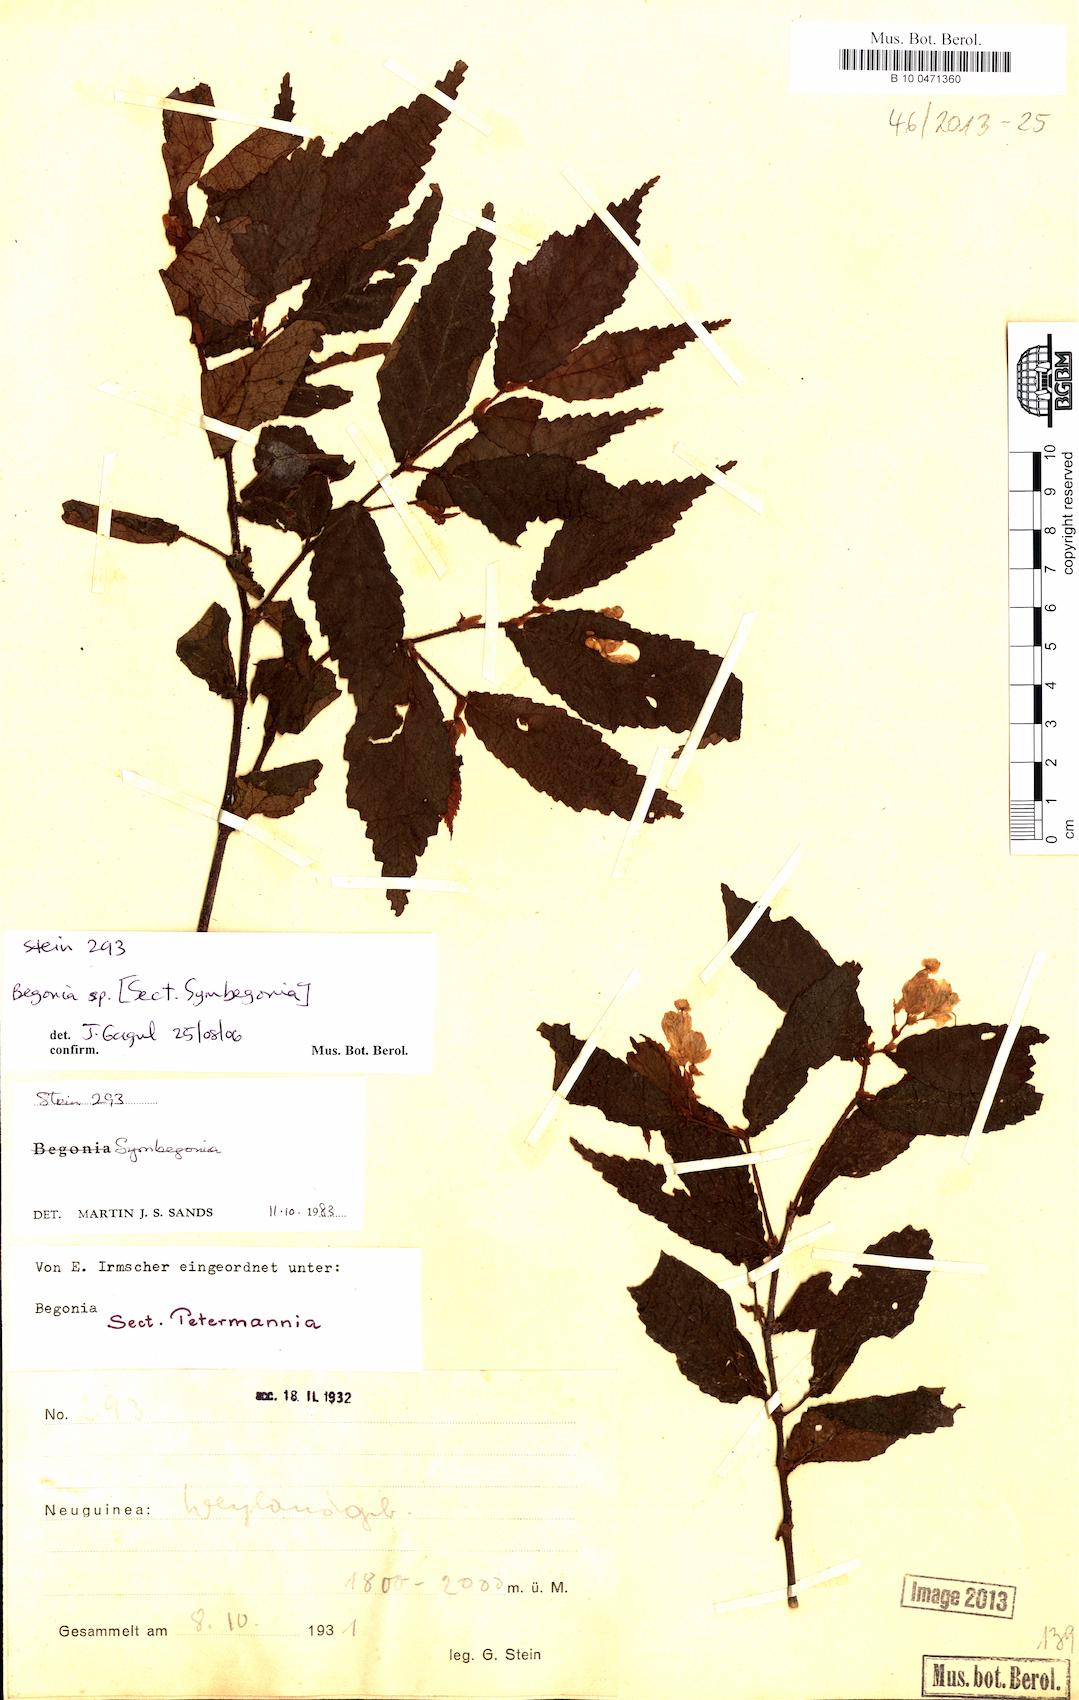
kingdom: Plantae
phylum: Tracheophyta
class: Magnoliopsida
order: Cucurbitales
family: Begoniaceae
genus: Begonia
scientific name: Begonia
